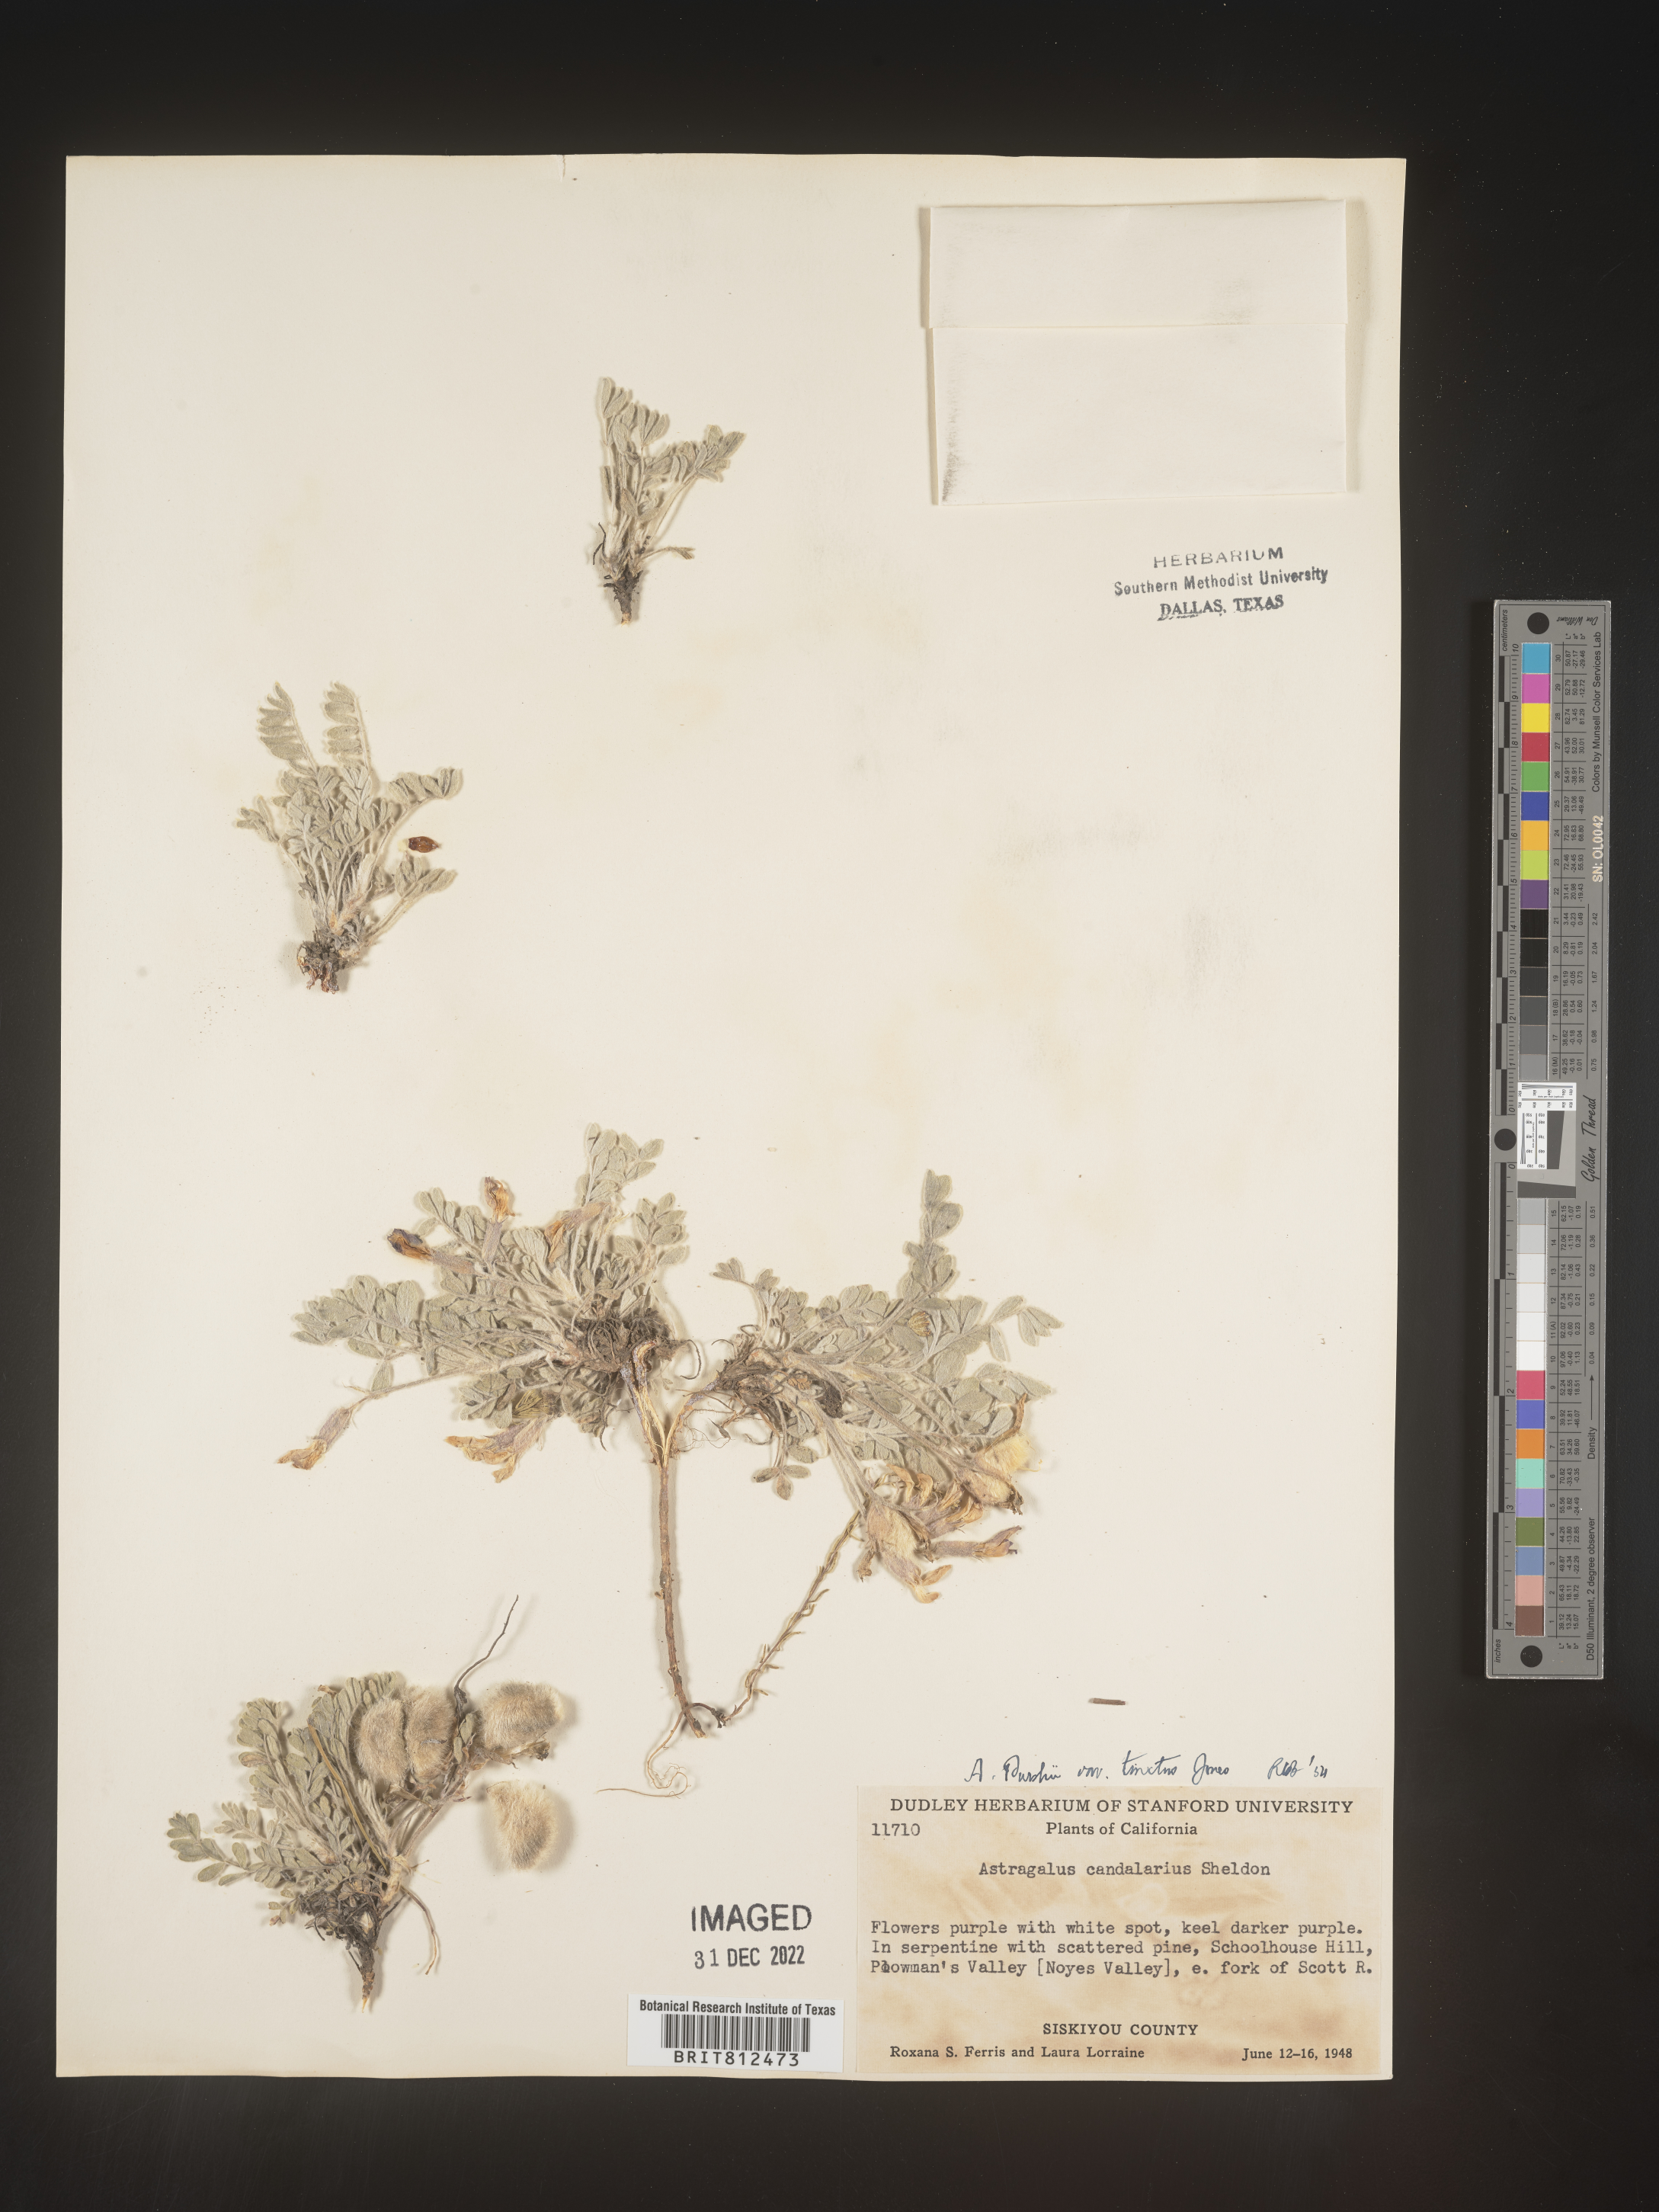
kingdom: Plantae
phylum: Tracheophyta
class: Magnoliopsida
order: Fabales
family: Fabaceae
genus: Astragalus
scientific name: Astragalus leucolobus
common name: Big bear valley woollypod
